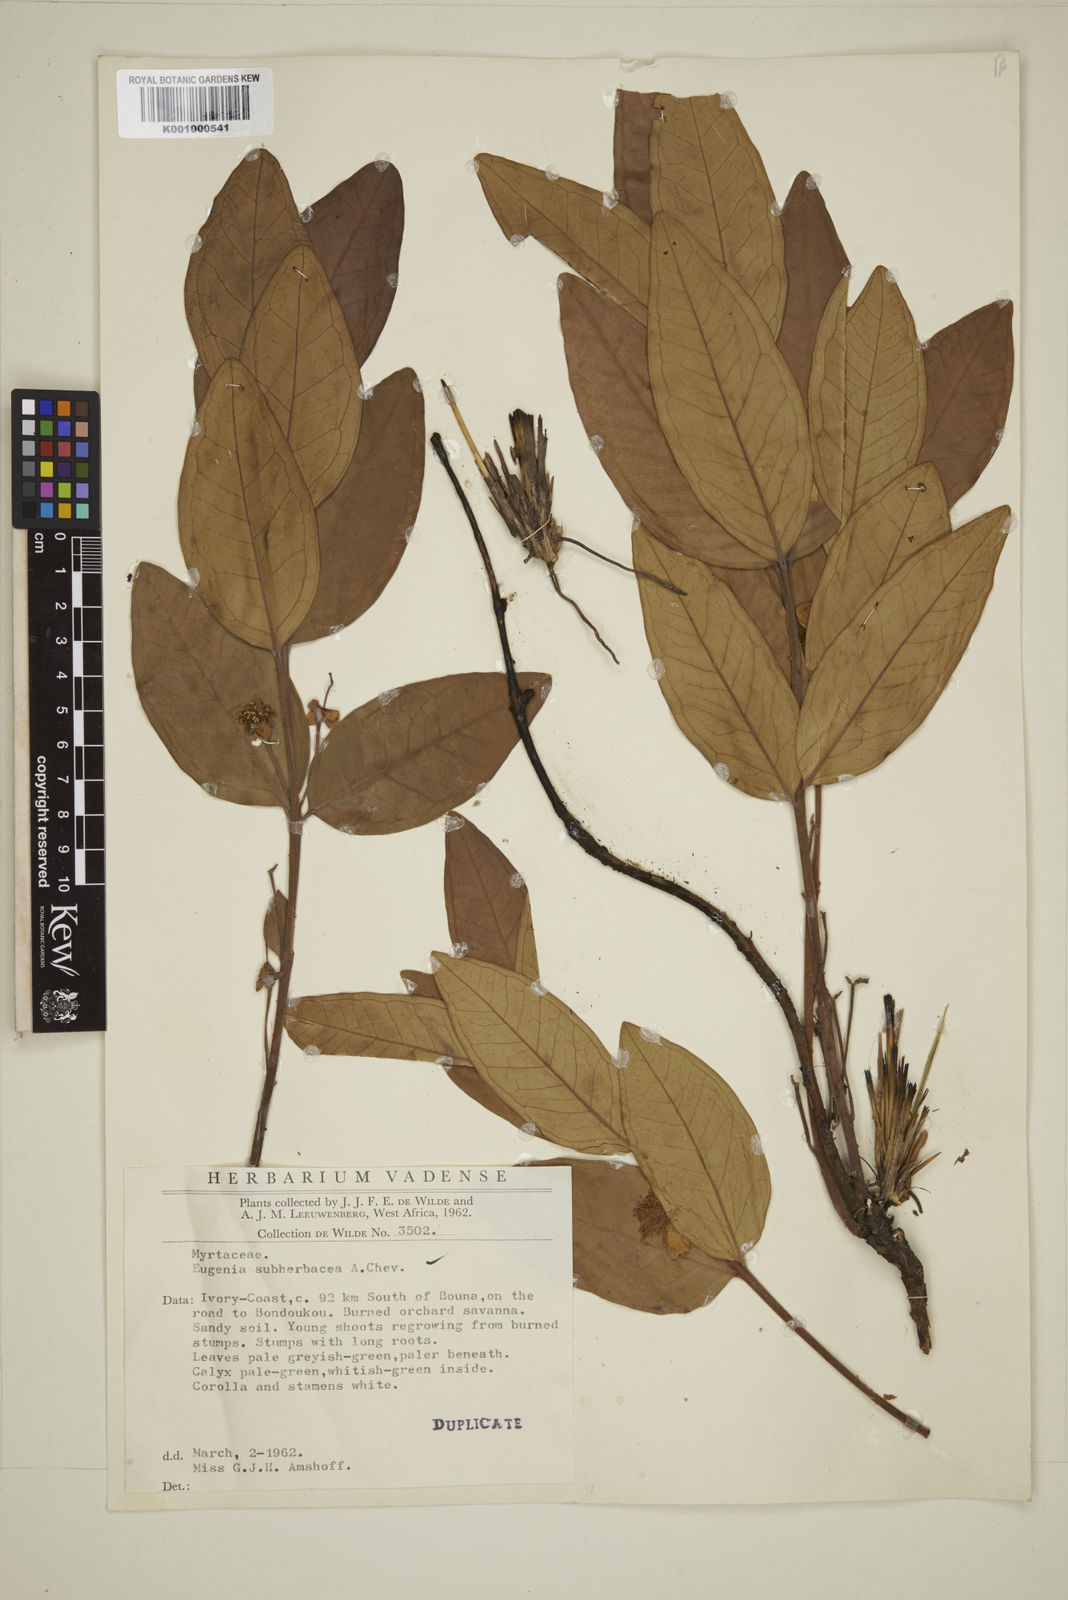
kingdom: Plantae
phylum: Tracheophyta
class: Magnoliopsida
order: Myrtales
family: Myrtaceae
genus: Eugenia
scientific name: Eugenia subherbacea
